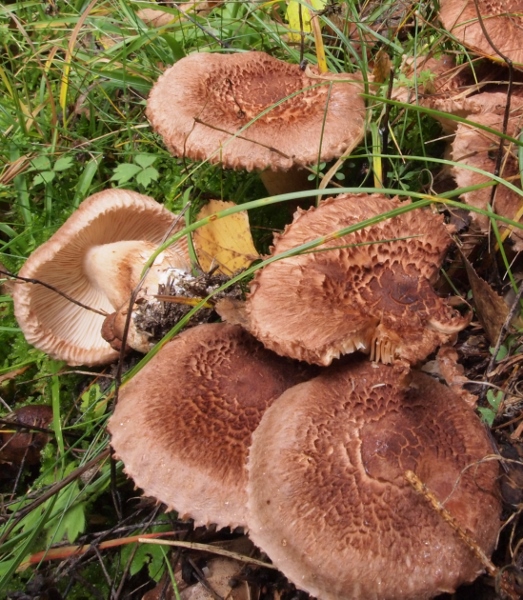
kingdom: Fungi
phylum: Basidiomycota
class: Agaricomycetes
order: Agaricales
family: Tricholomataceae
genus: Tricholoma
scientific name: Tricholoma vaccinum
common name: ko-ridderhat
